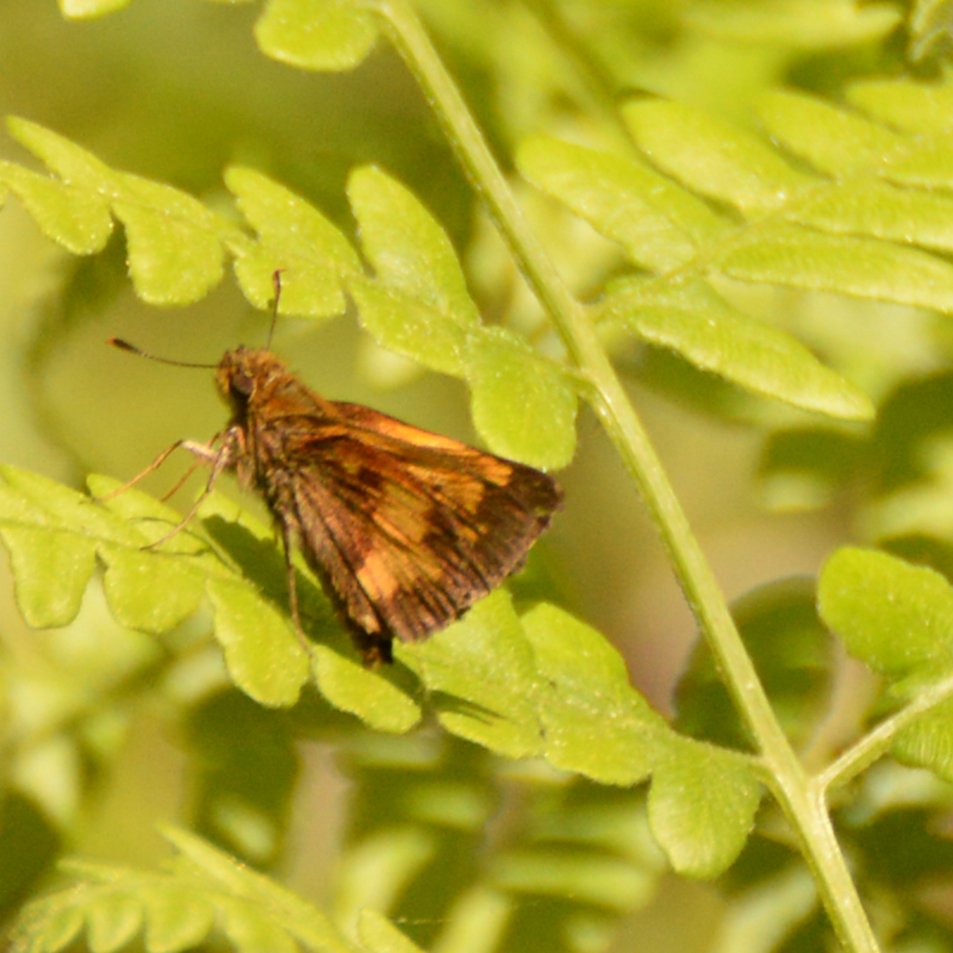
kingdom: Animalia
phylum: Arthropoda
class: Insecta
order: Lepidoptera
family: Hesperiidae
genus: Lon
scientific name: Lon hobomok
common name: Hobomok Skipper
